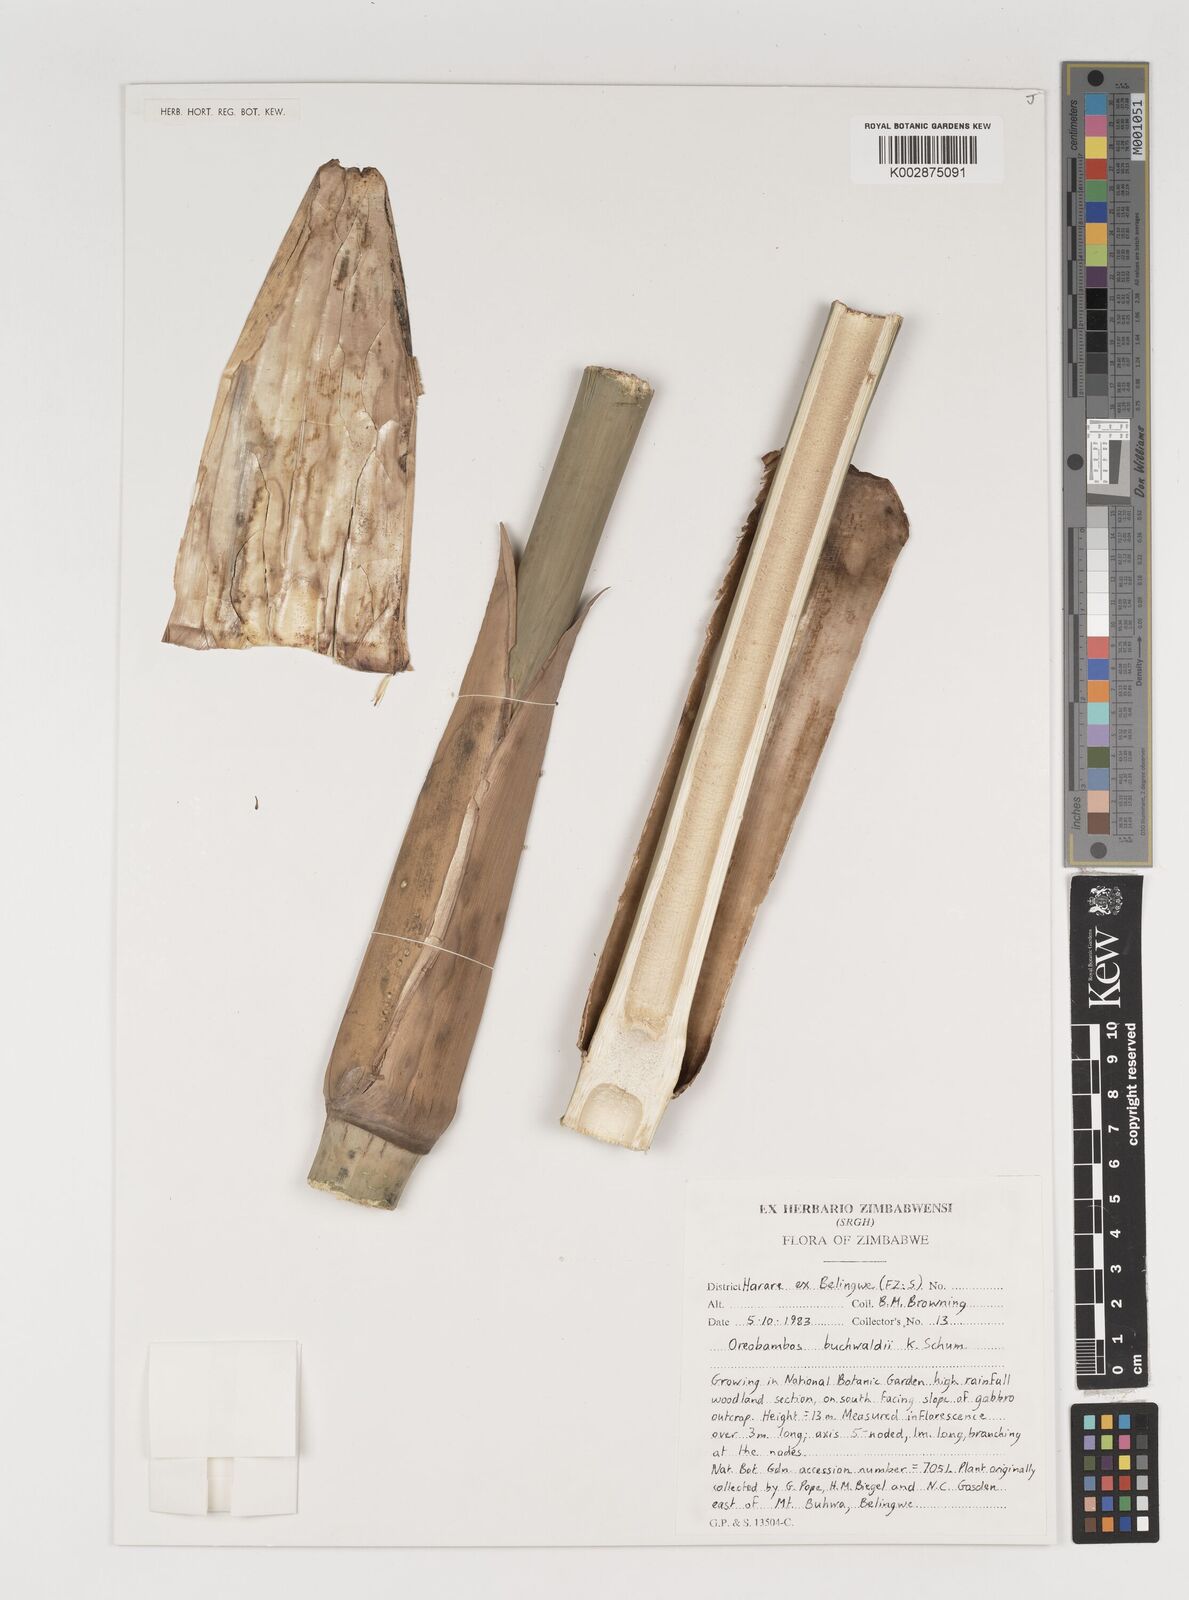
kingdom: Plantae
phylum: Tracheophyta
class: Liliopsida
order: Poales
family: Poaceae
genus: Oreobambos
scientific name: Oreobambos buchwaldii
